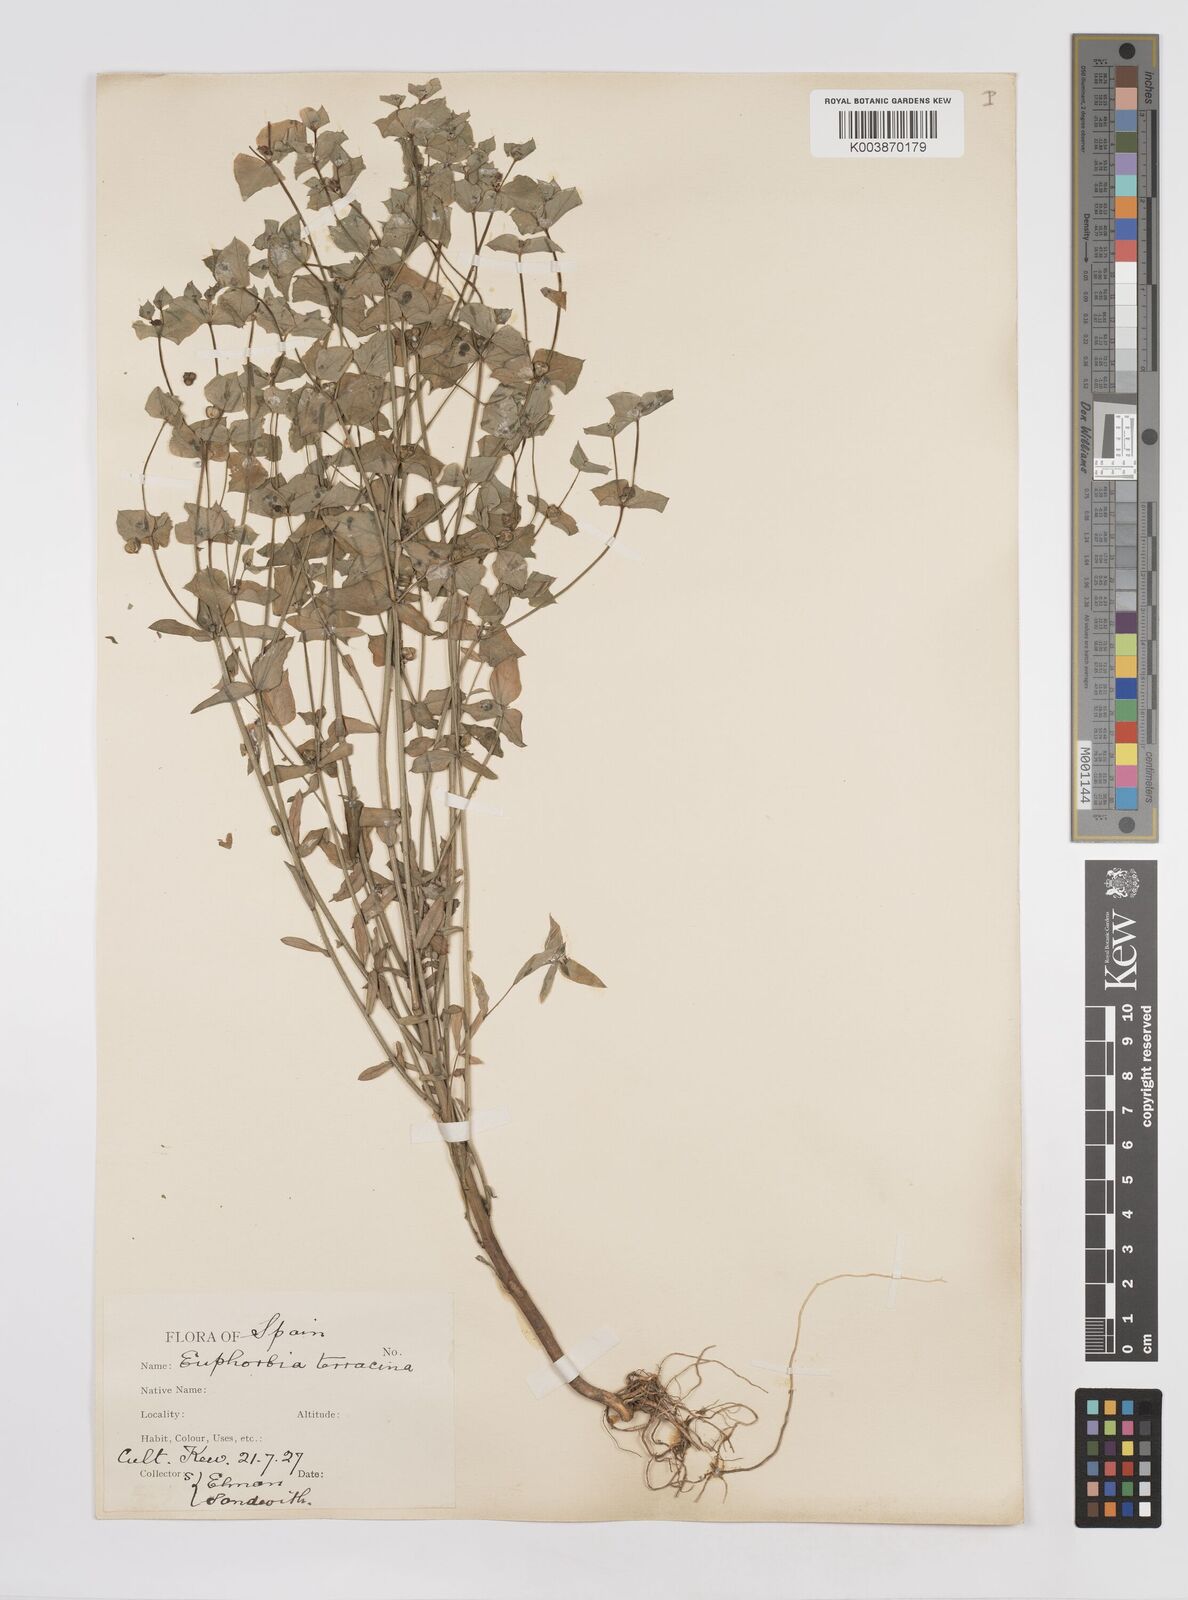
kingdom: Plantae
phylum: Tracheophyta
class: Magnoliopsida
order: Malpighiales
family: Euphorbiaceae
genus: Euphorbia
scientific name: Euphorbia terracina
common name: Geraldton carnation weed
